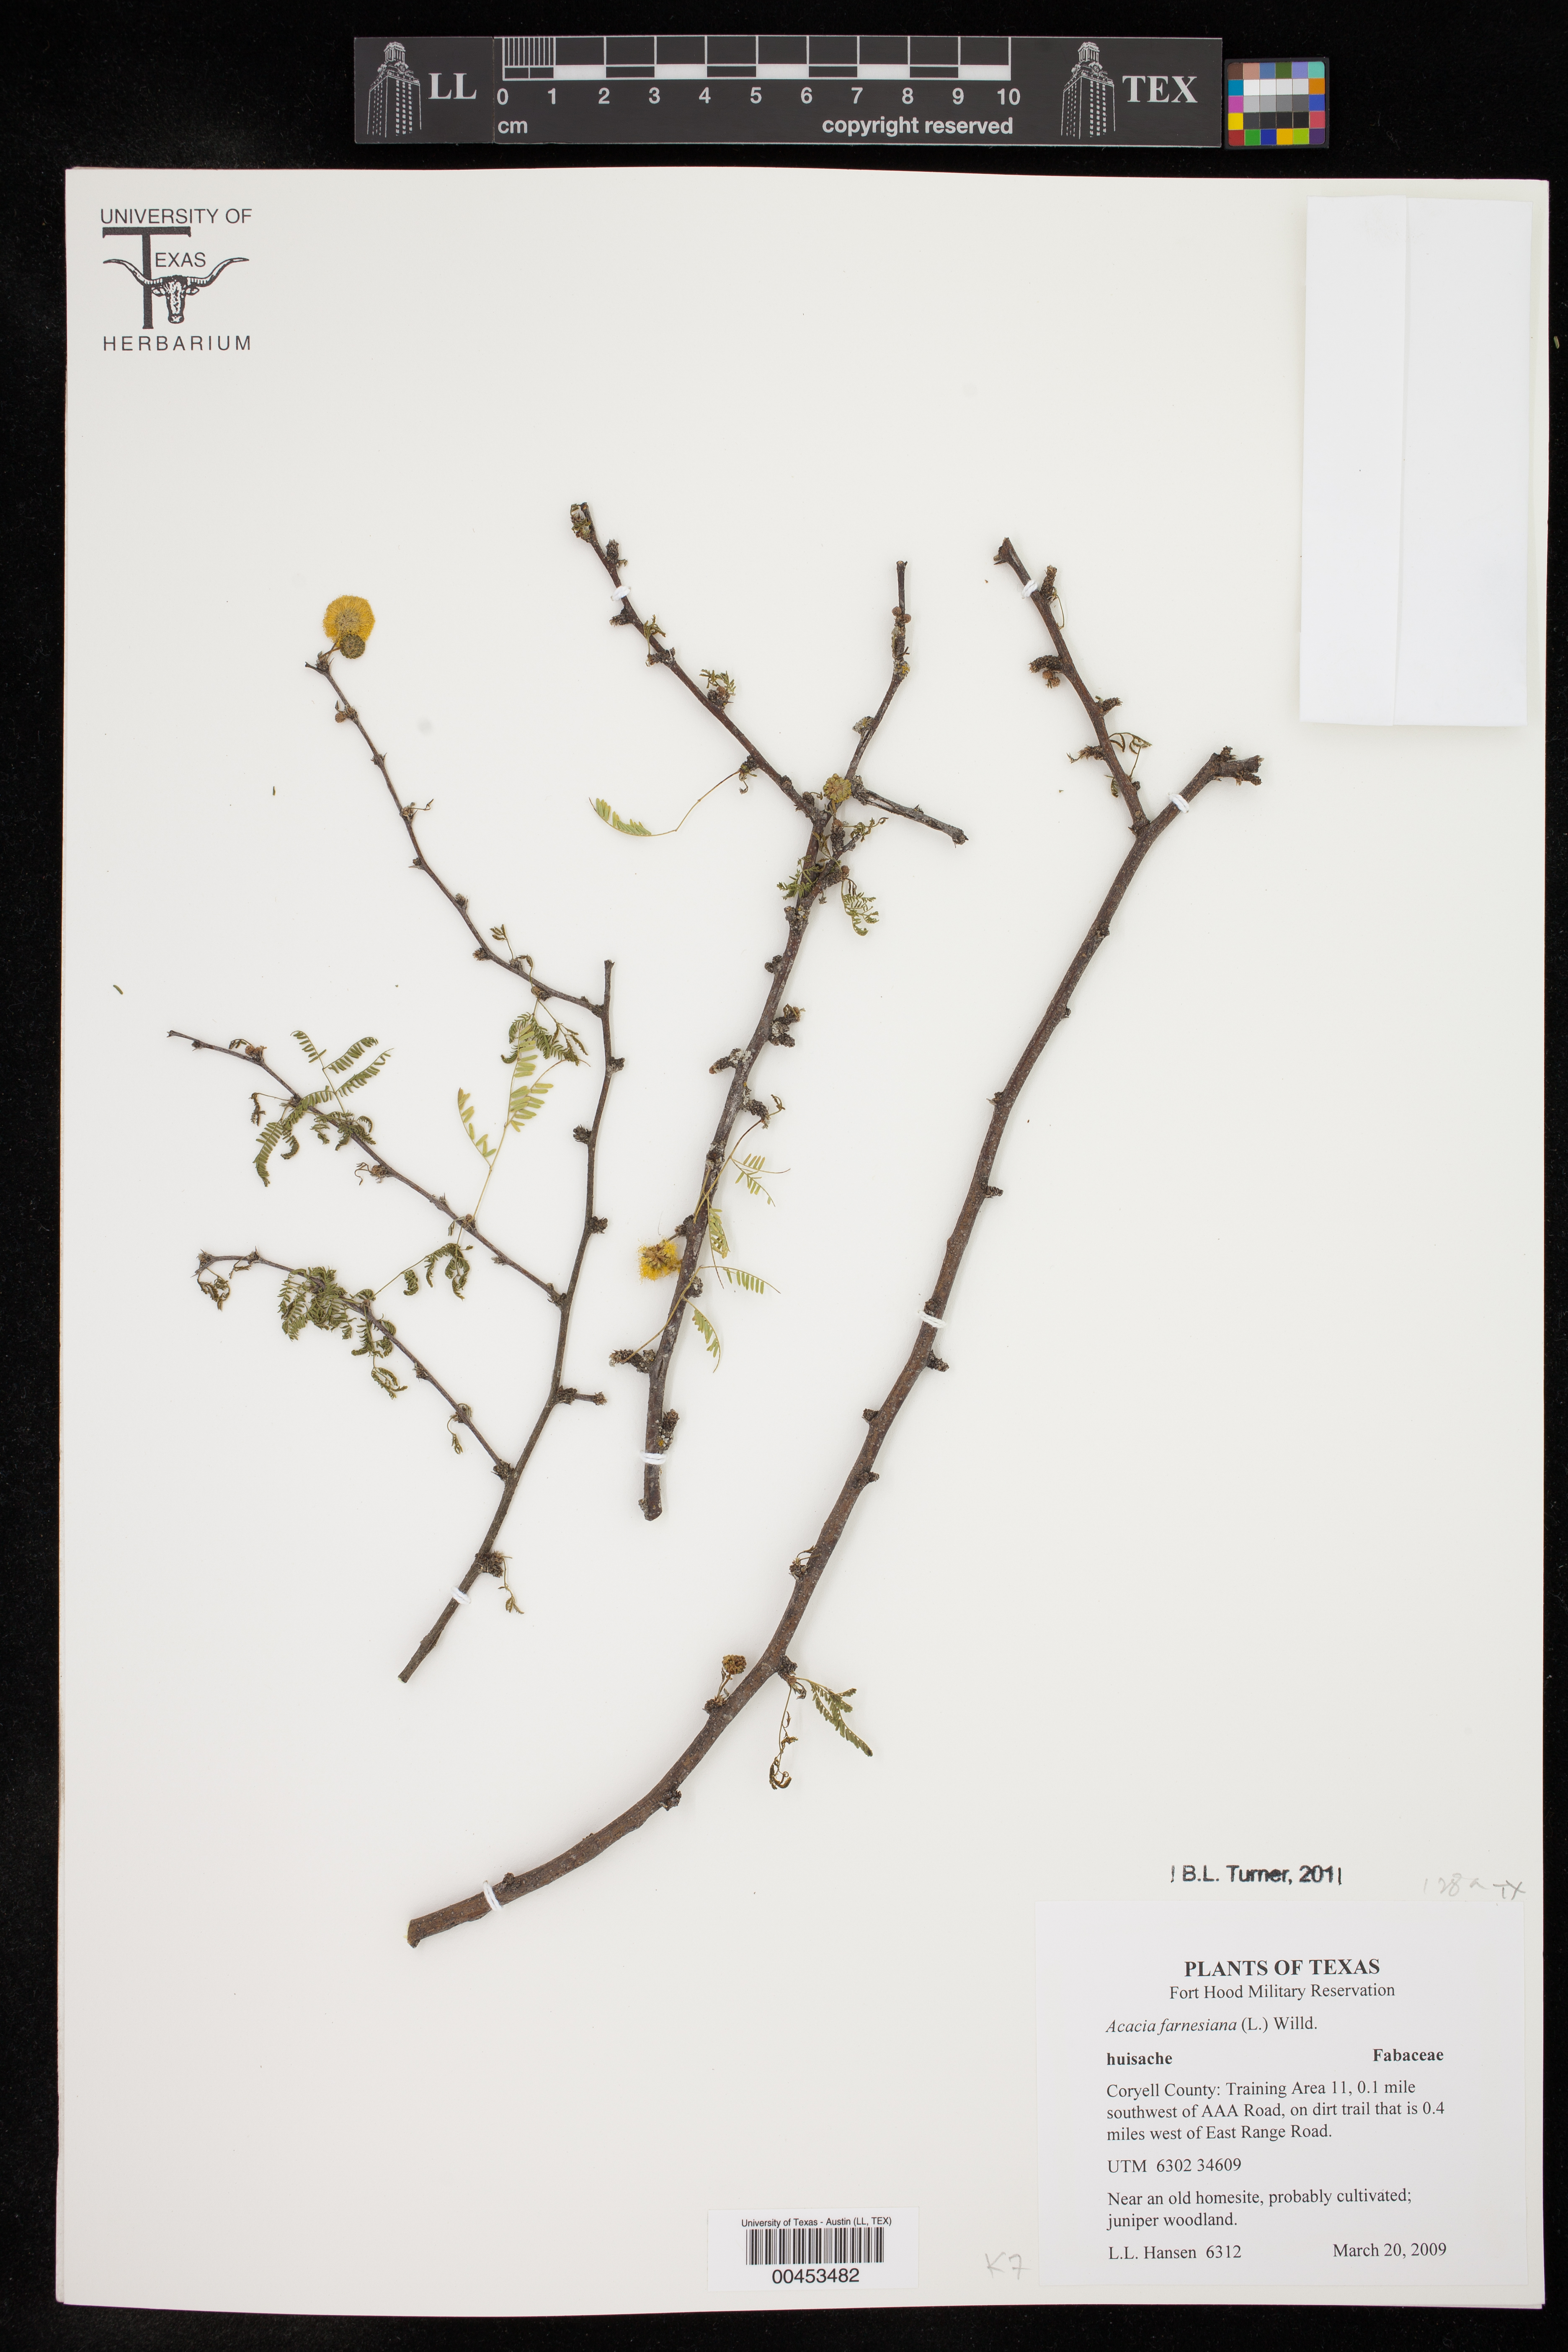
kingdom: Plantae
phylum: Tracheophyta
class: Magnoliopsida
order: Fabales
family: Fabaceae
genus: Vachellia
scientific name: Vachellia farnesiana
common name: Sweet acacia
